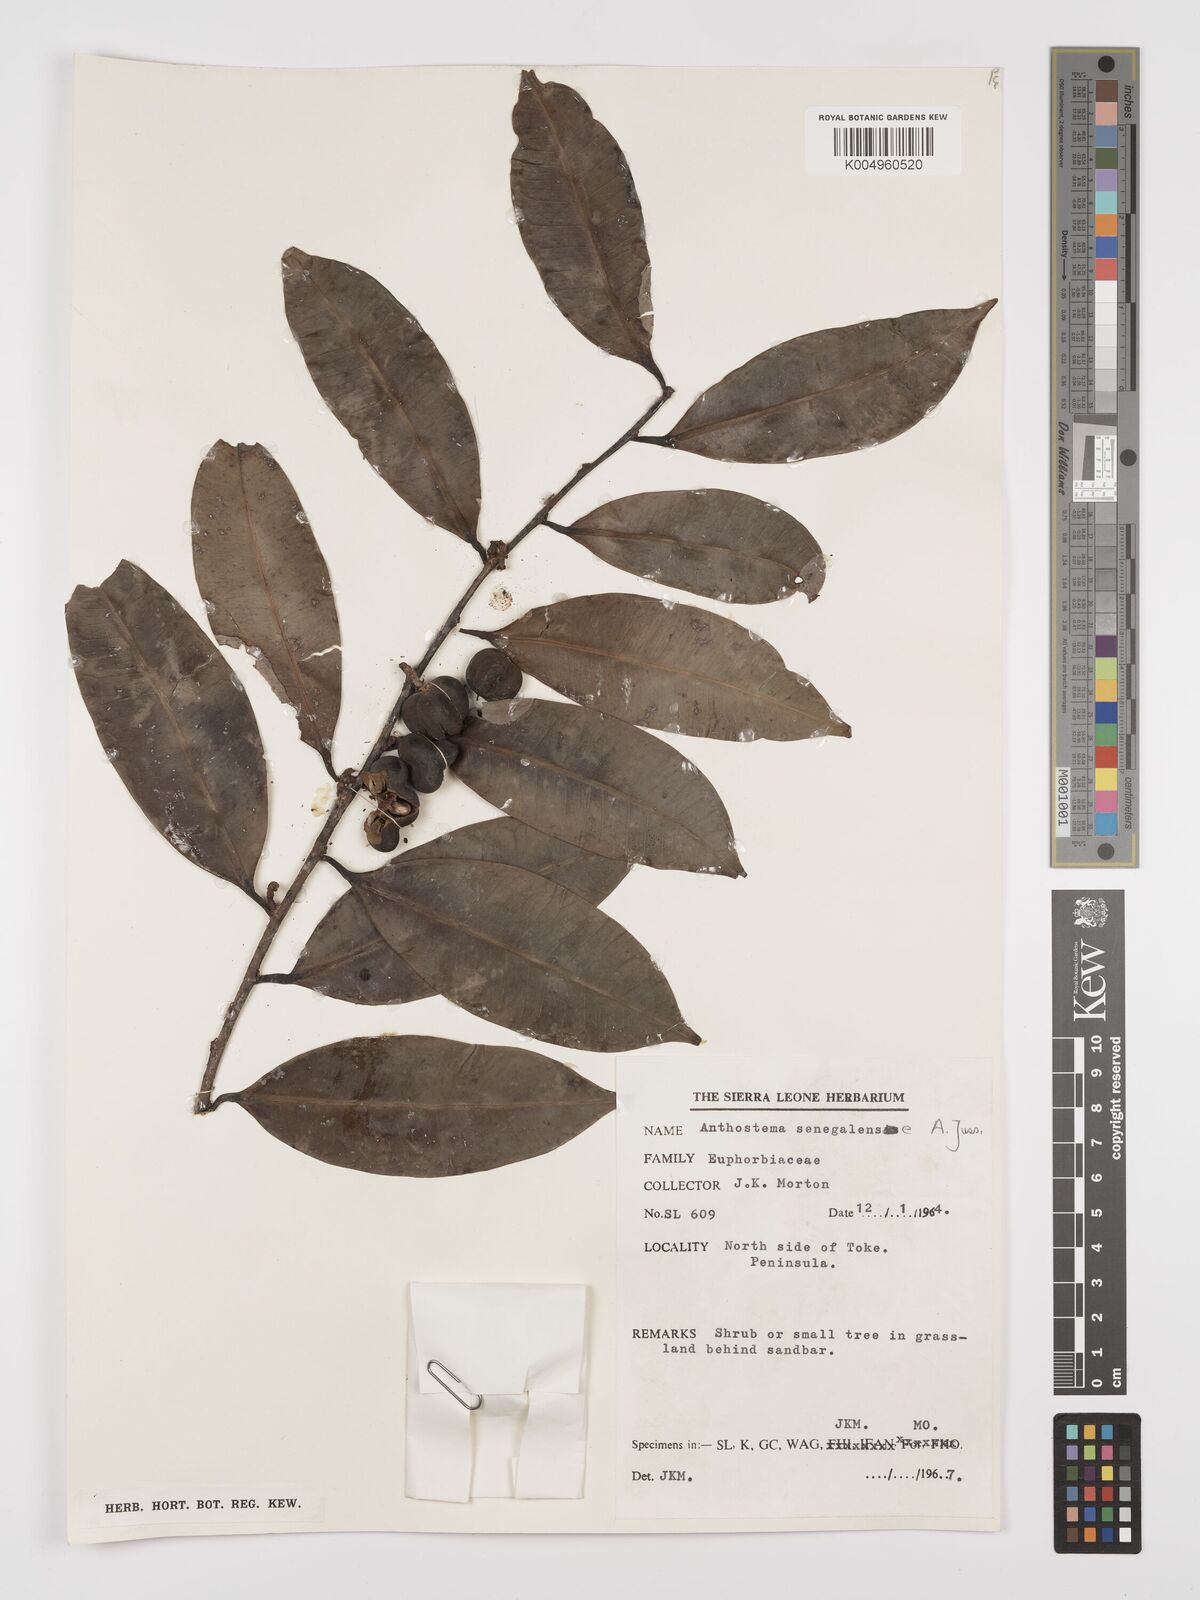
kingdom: Plantae
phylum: Tracheophyta
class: Magnoliopsida
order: Malpighiales
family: Euphorbiaceae
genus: Anthostema
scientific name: Anthostema senegalense
